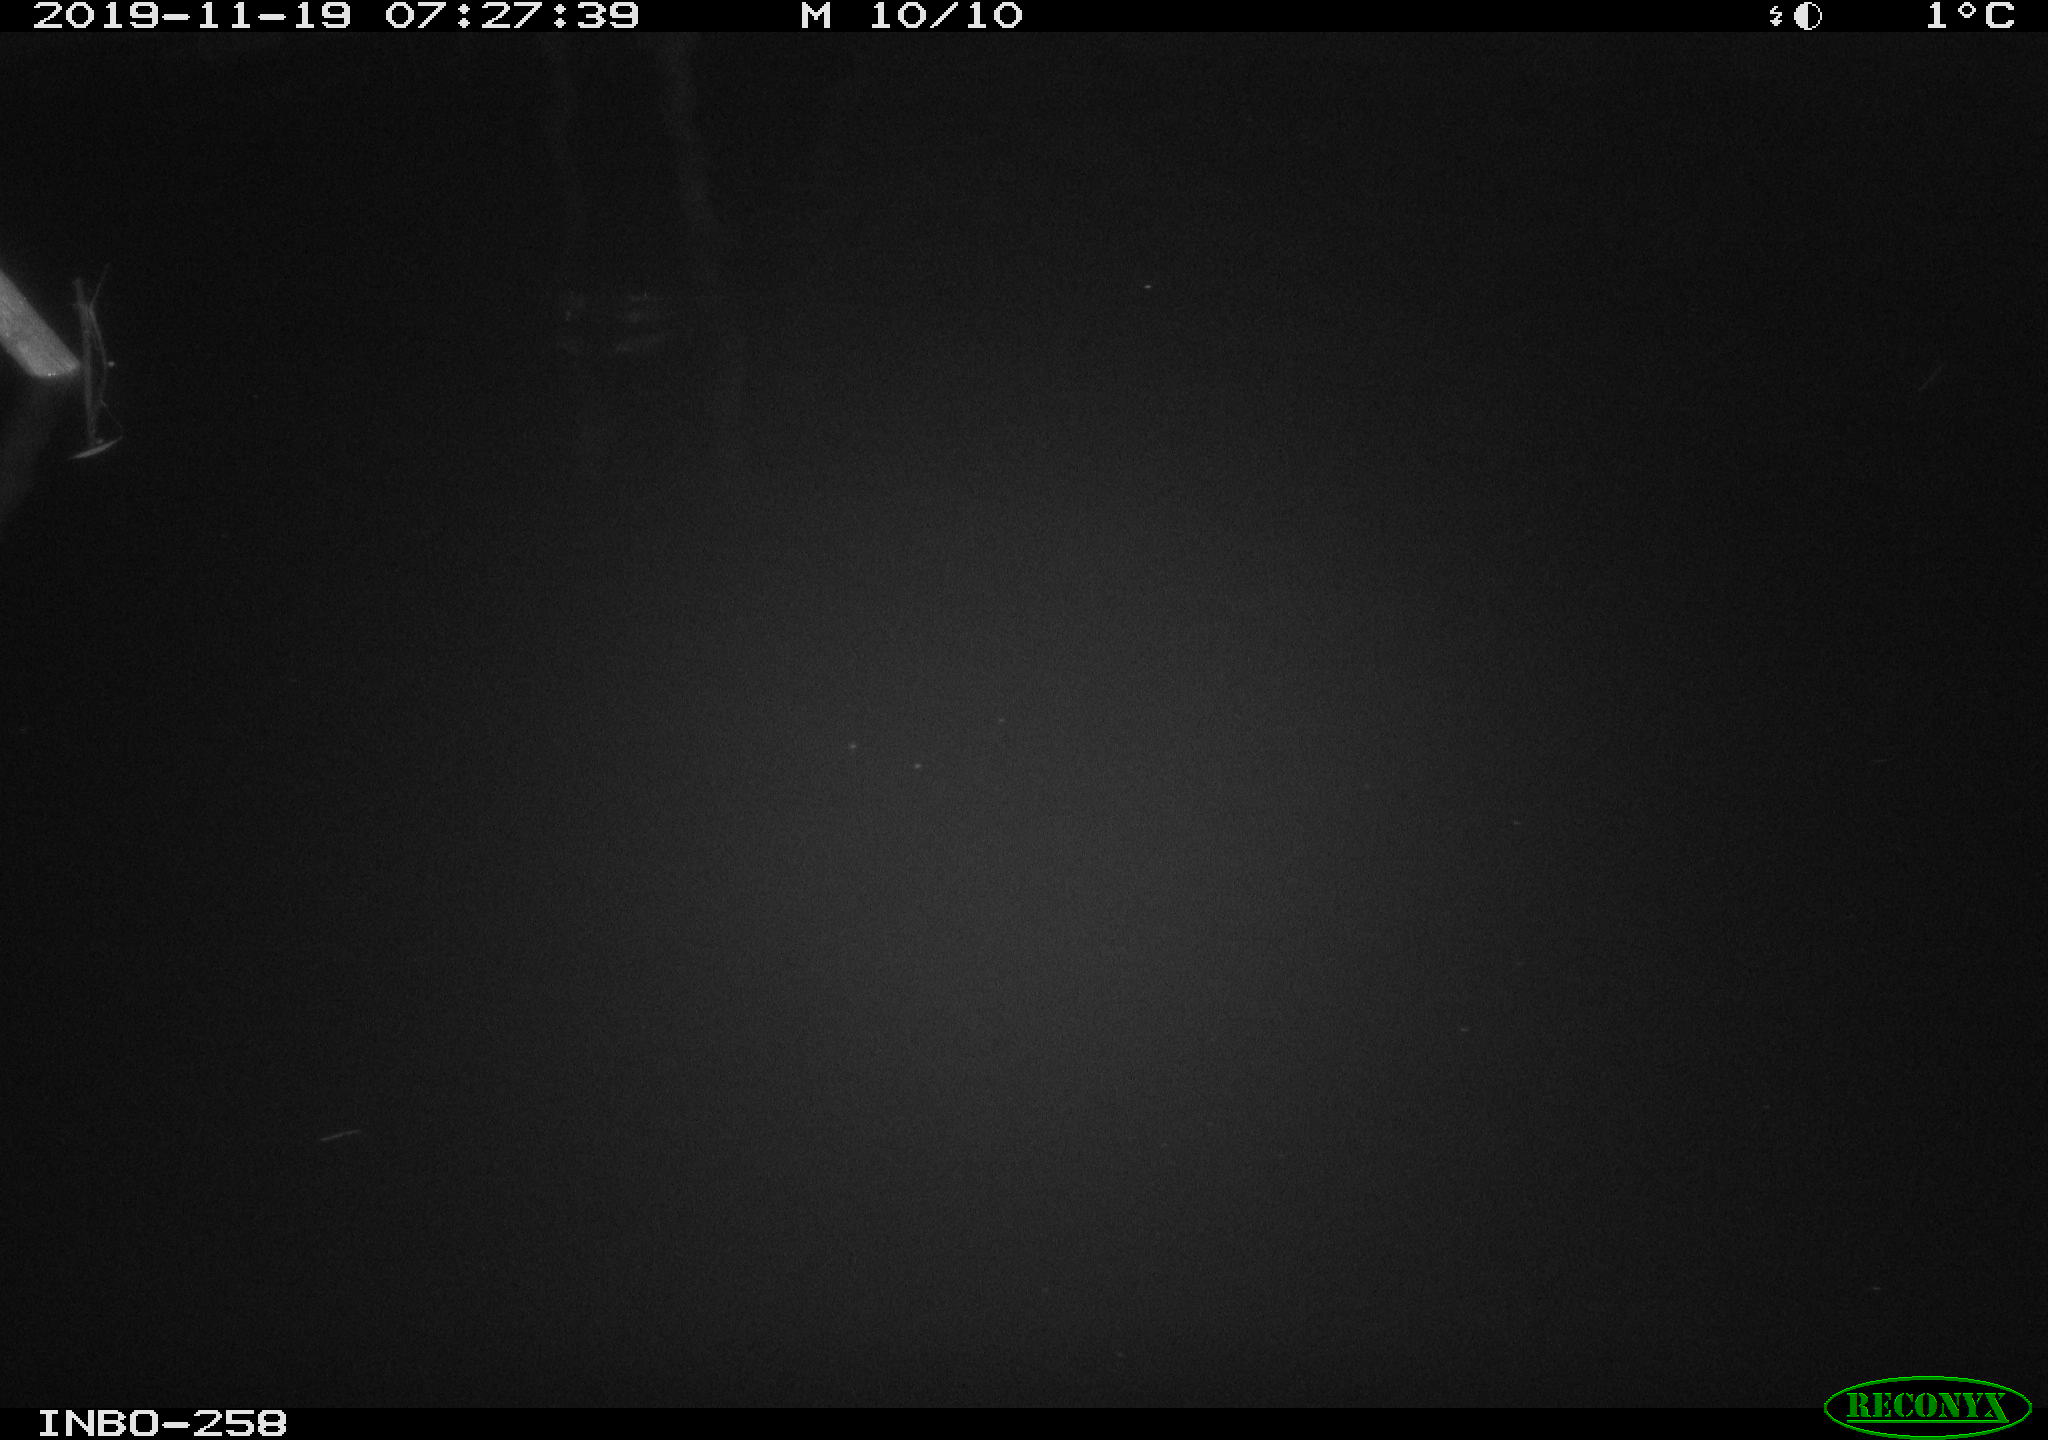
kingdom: Animalia
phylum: Chordata
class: Aves
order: Anseriformes
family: Anatidae
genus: Anas
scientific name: Anas platyrhynchos
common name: Mallard
